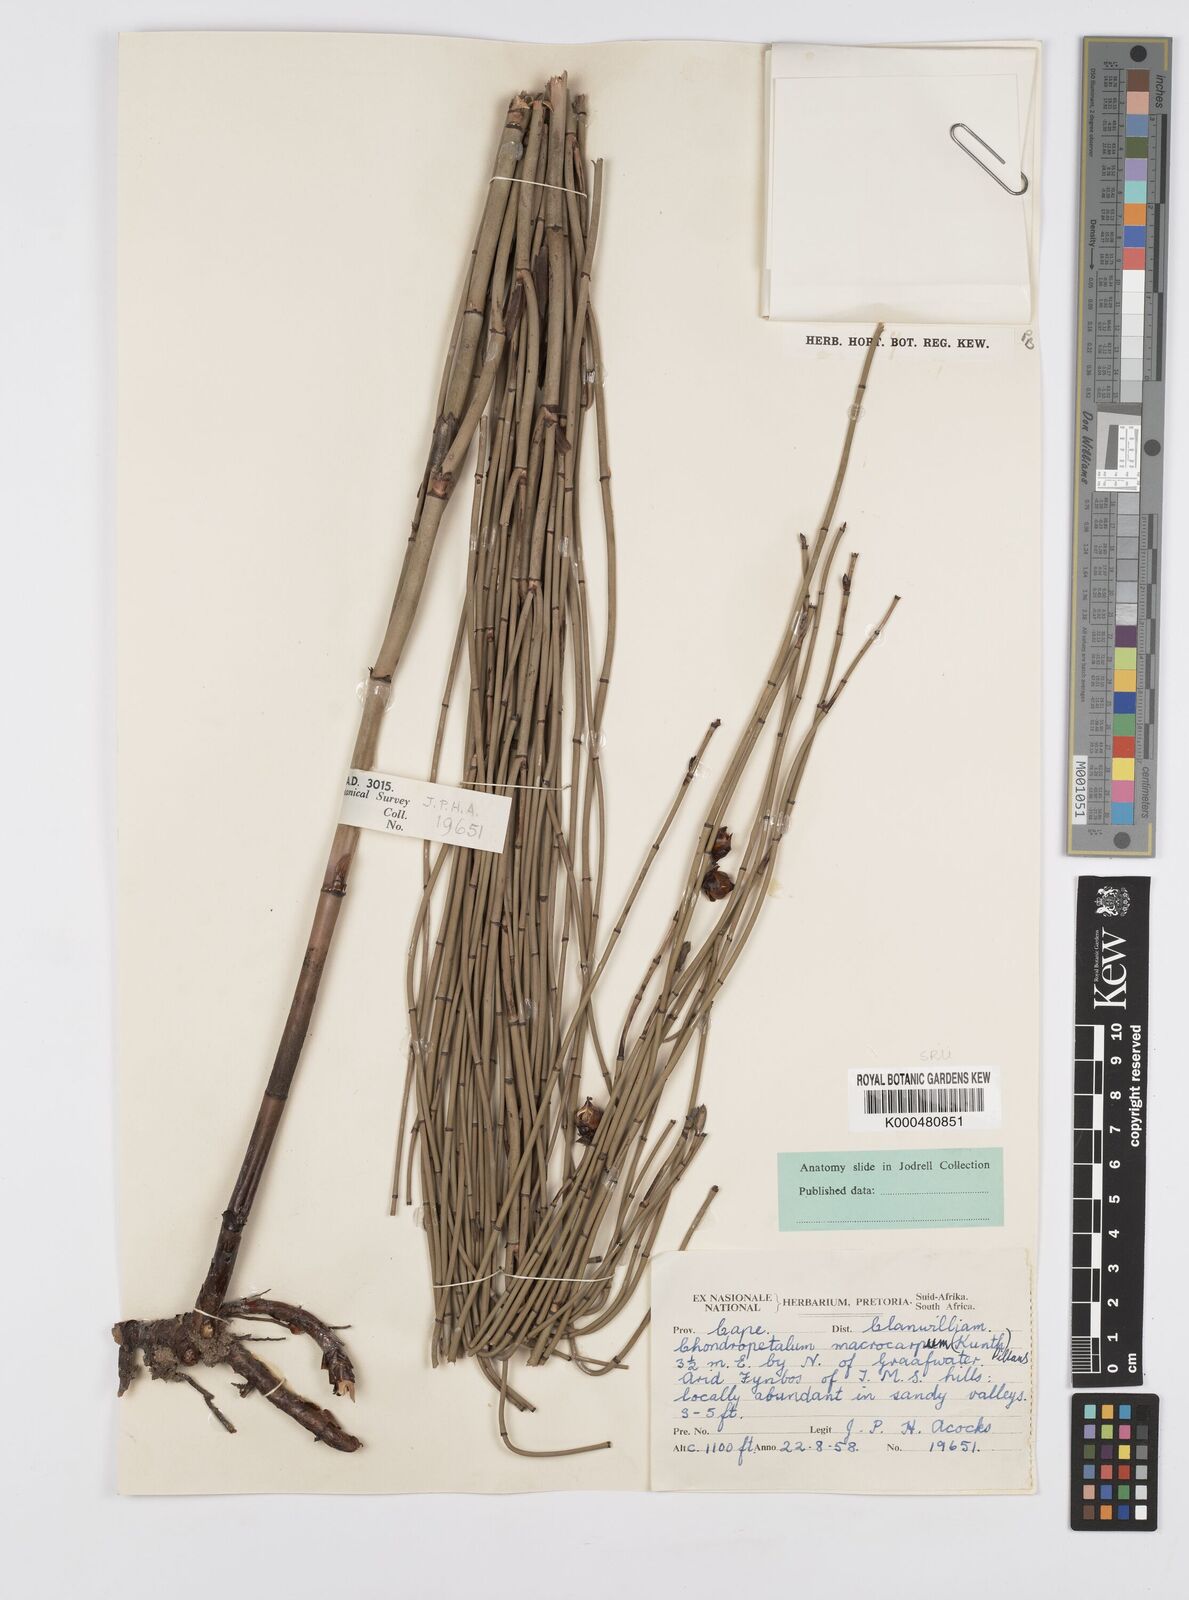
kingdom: Plantae
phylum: Tracheophyta
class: Liliopsida
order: Poales
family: Restionaceae
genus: Elegia
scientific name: Elegia macrocarpa
